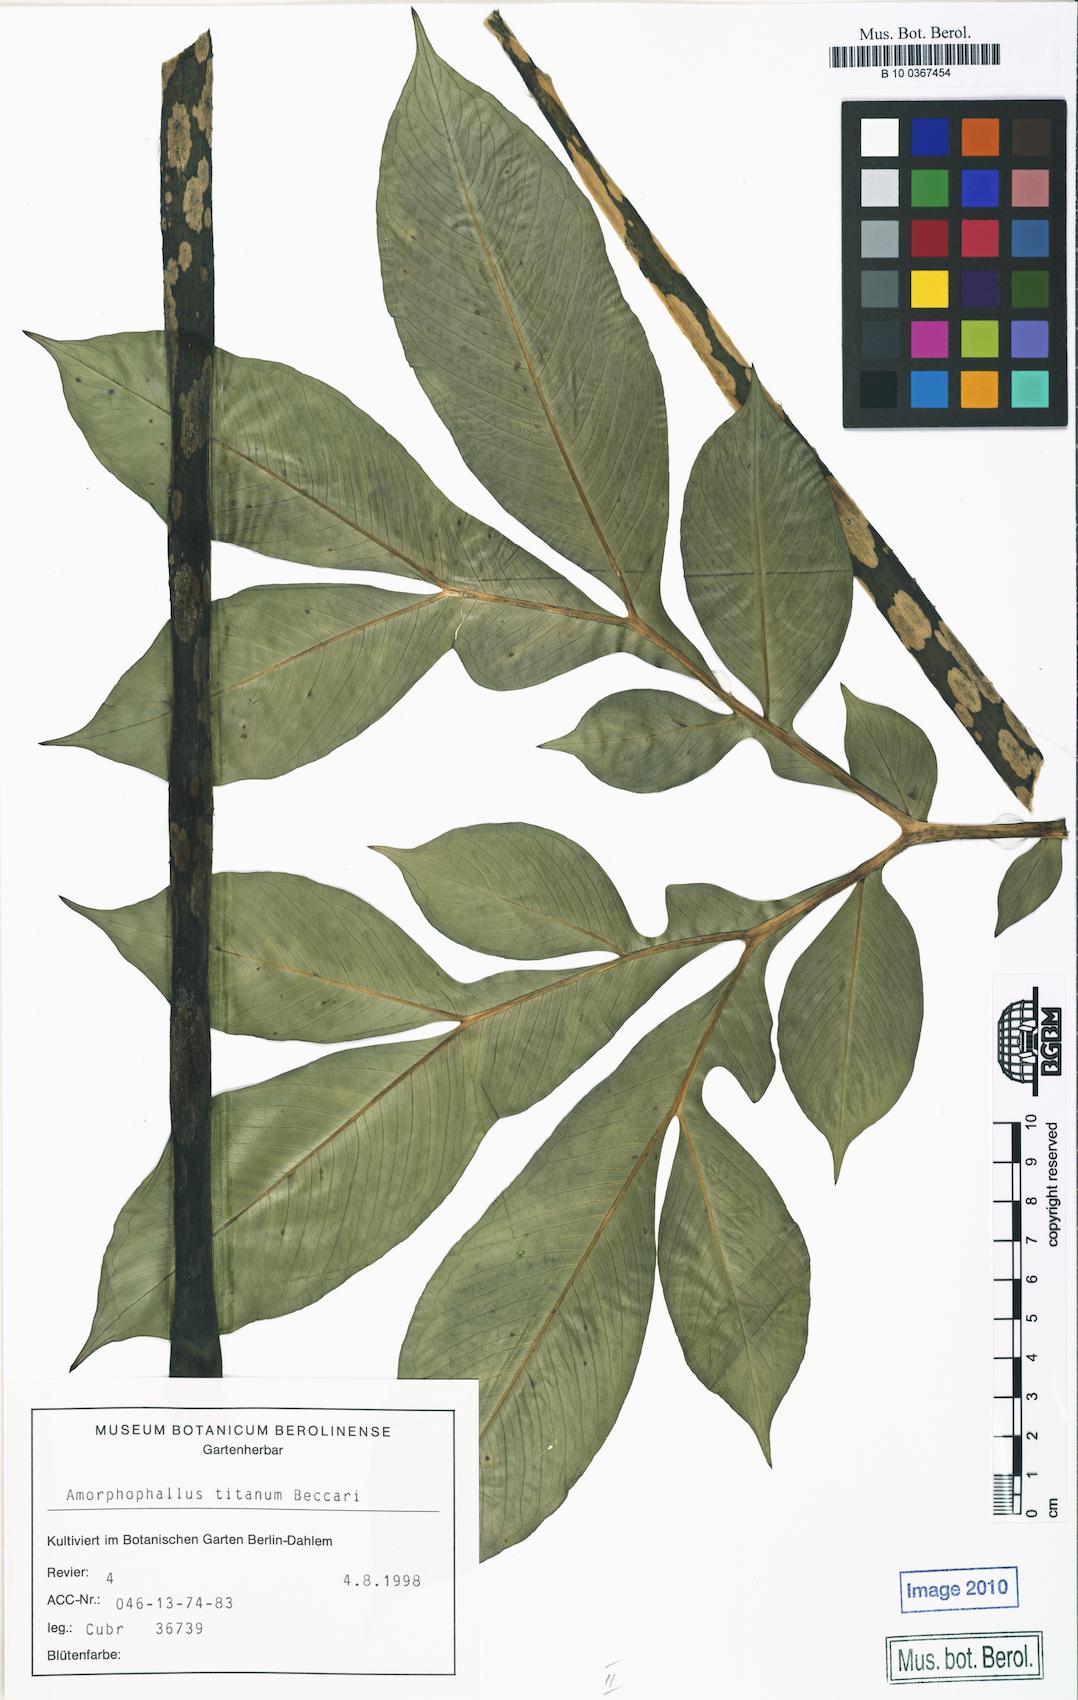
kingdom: Plantae
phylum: Tracheophyta
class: Liliopsida
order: Alismatales
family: Araceae
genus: Amorphophallus
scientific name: Amorphophallus paeoniifolius
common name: Telinga-potato
